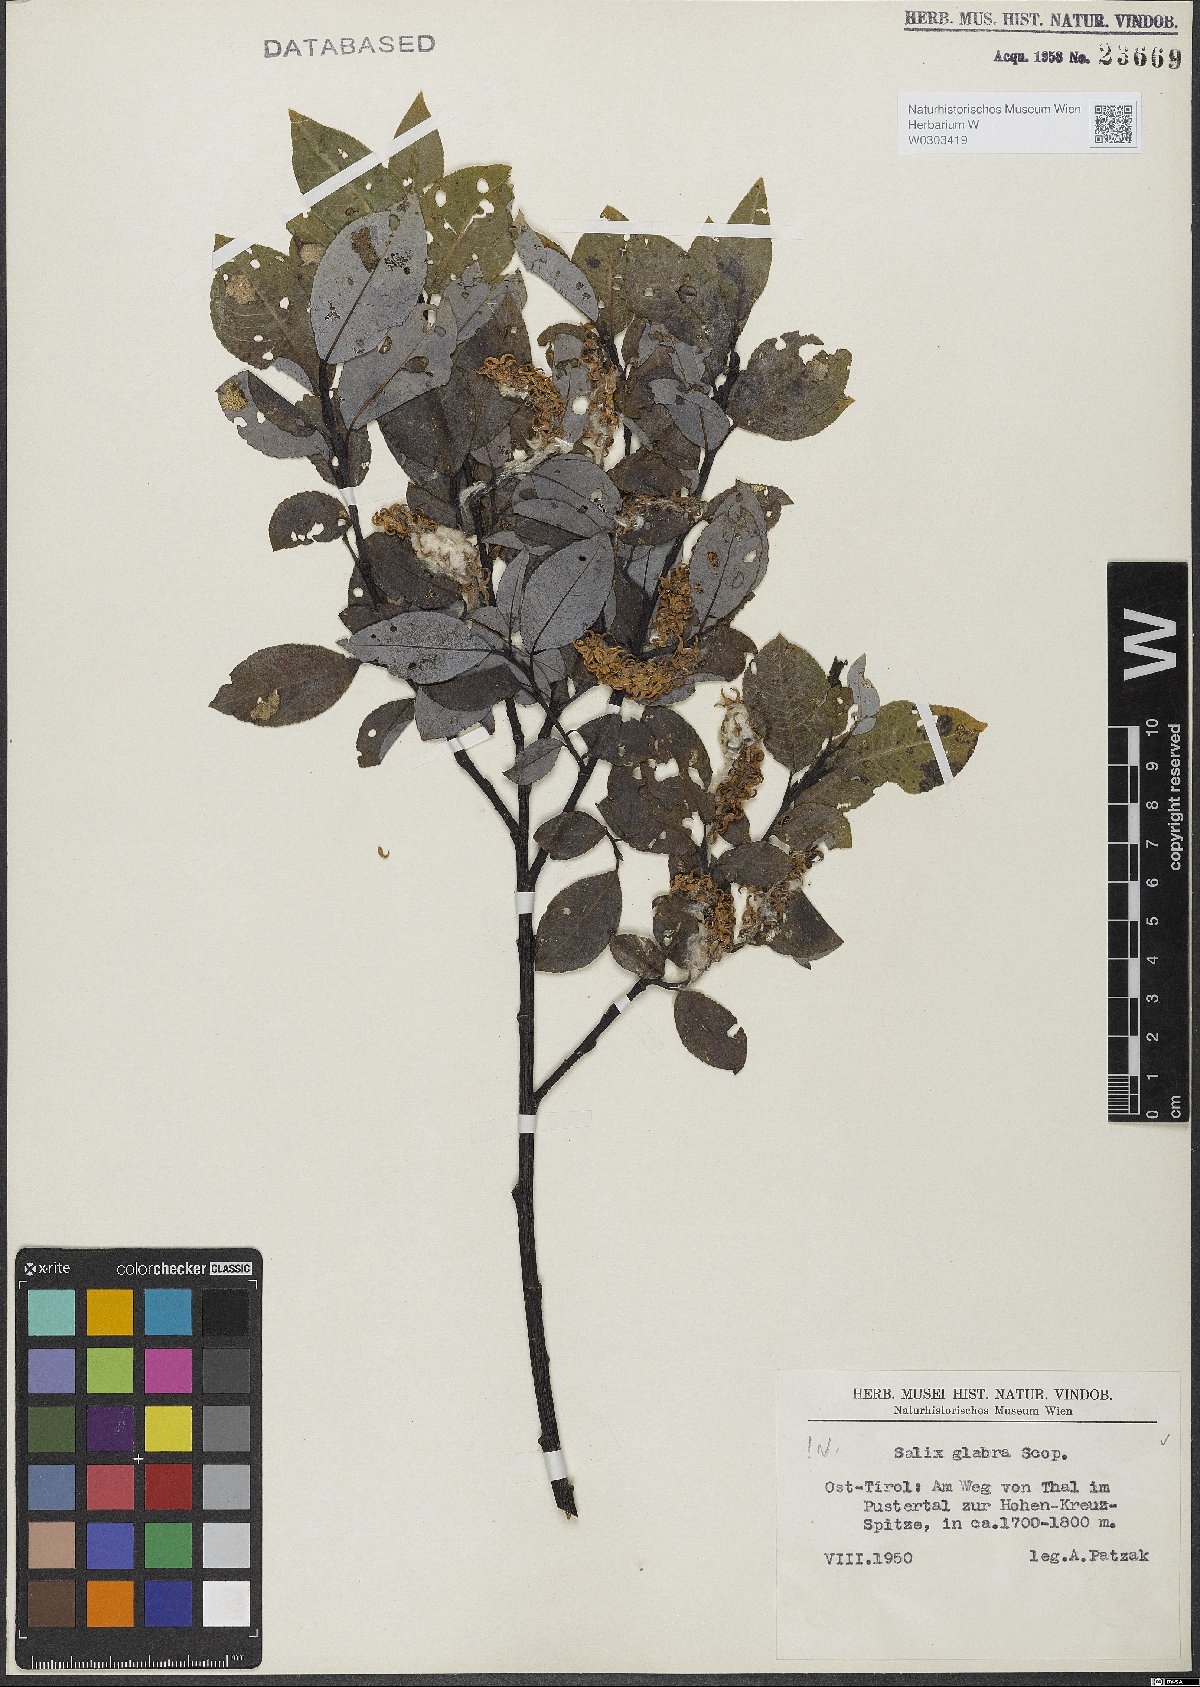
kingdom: Plantae
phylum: Tracheophyta
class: Magnoliopsida
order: Malpighiales
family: Salicaceae
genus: Salix
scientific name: Salix glabra
